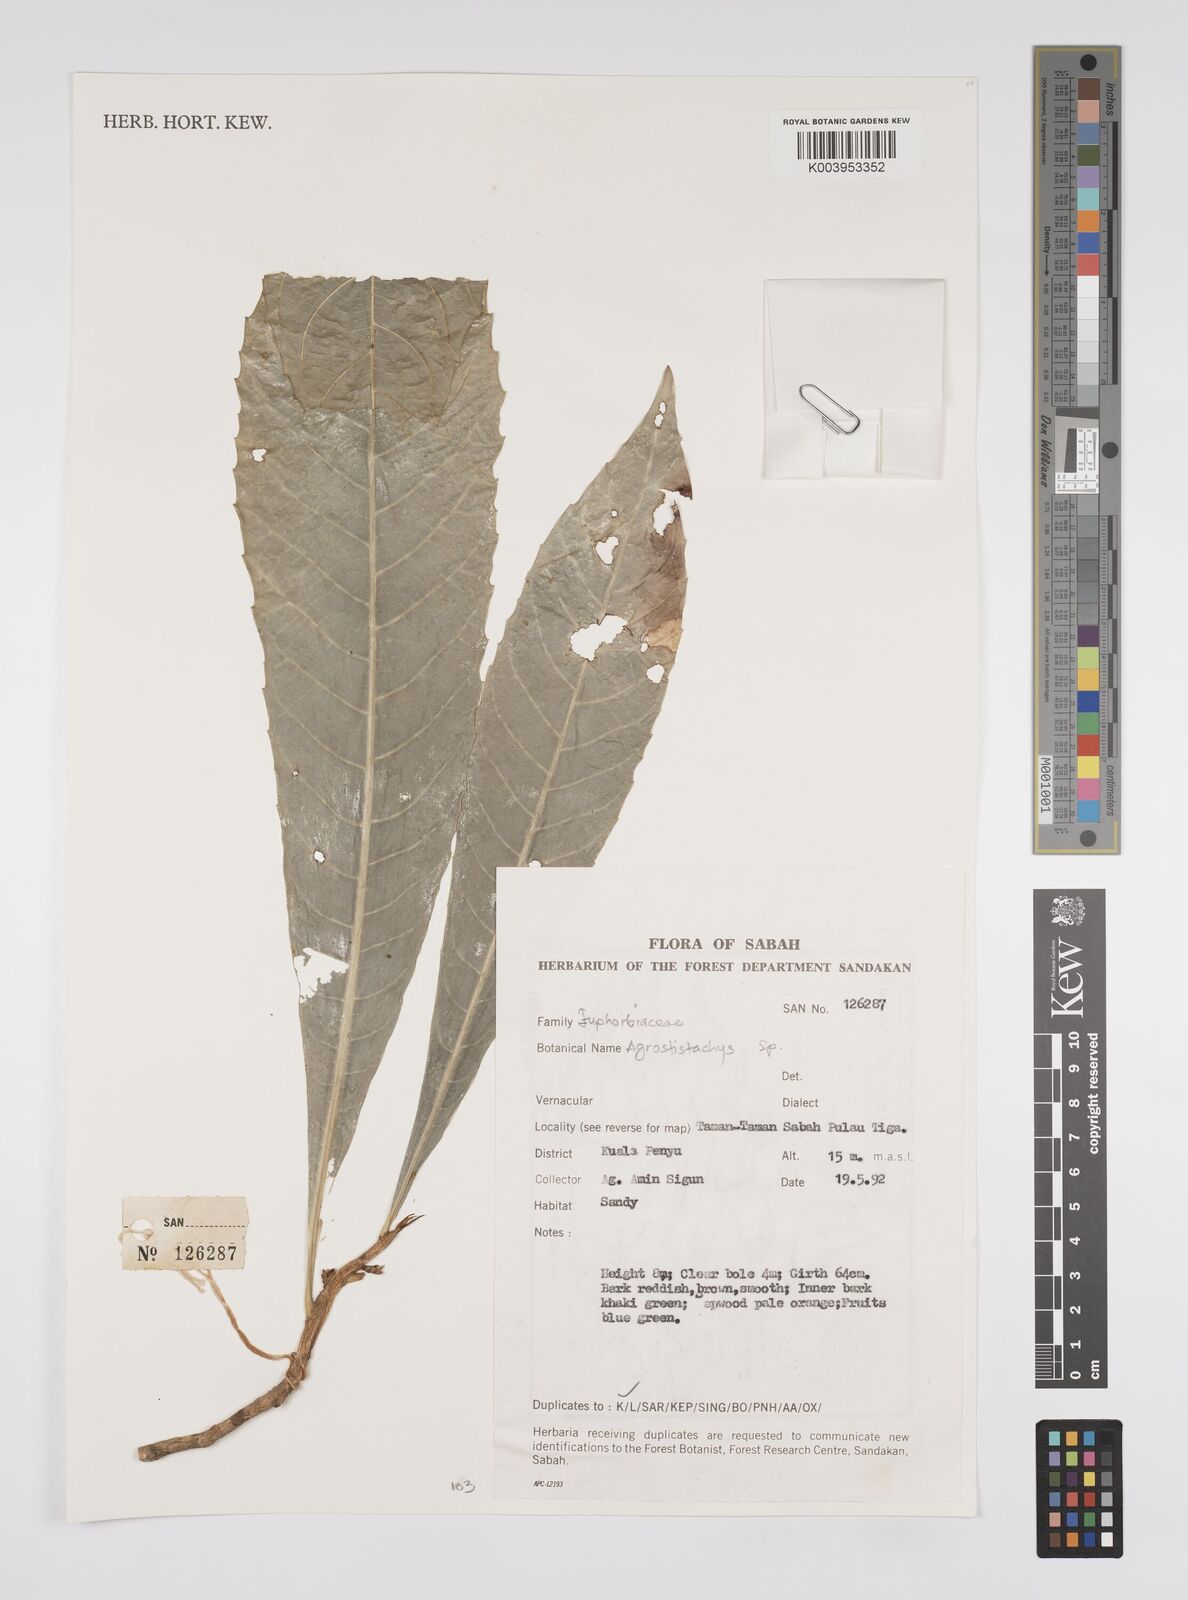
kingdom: Plantae
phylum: Tracheophyta
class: Magnoliopsida
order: Malpighiales
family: Euphorbiaceae
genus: Agrostistachys
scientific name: Agrostistachys
